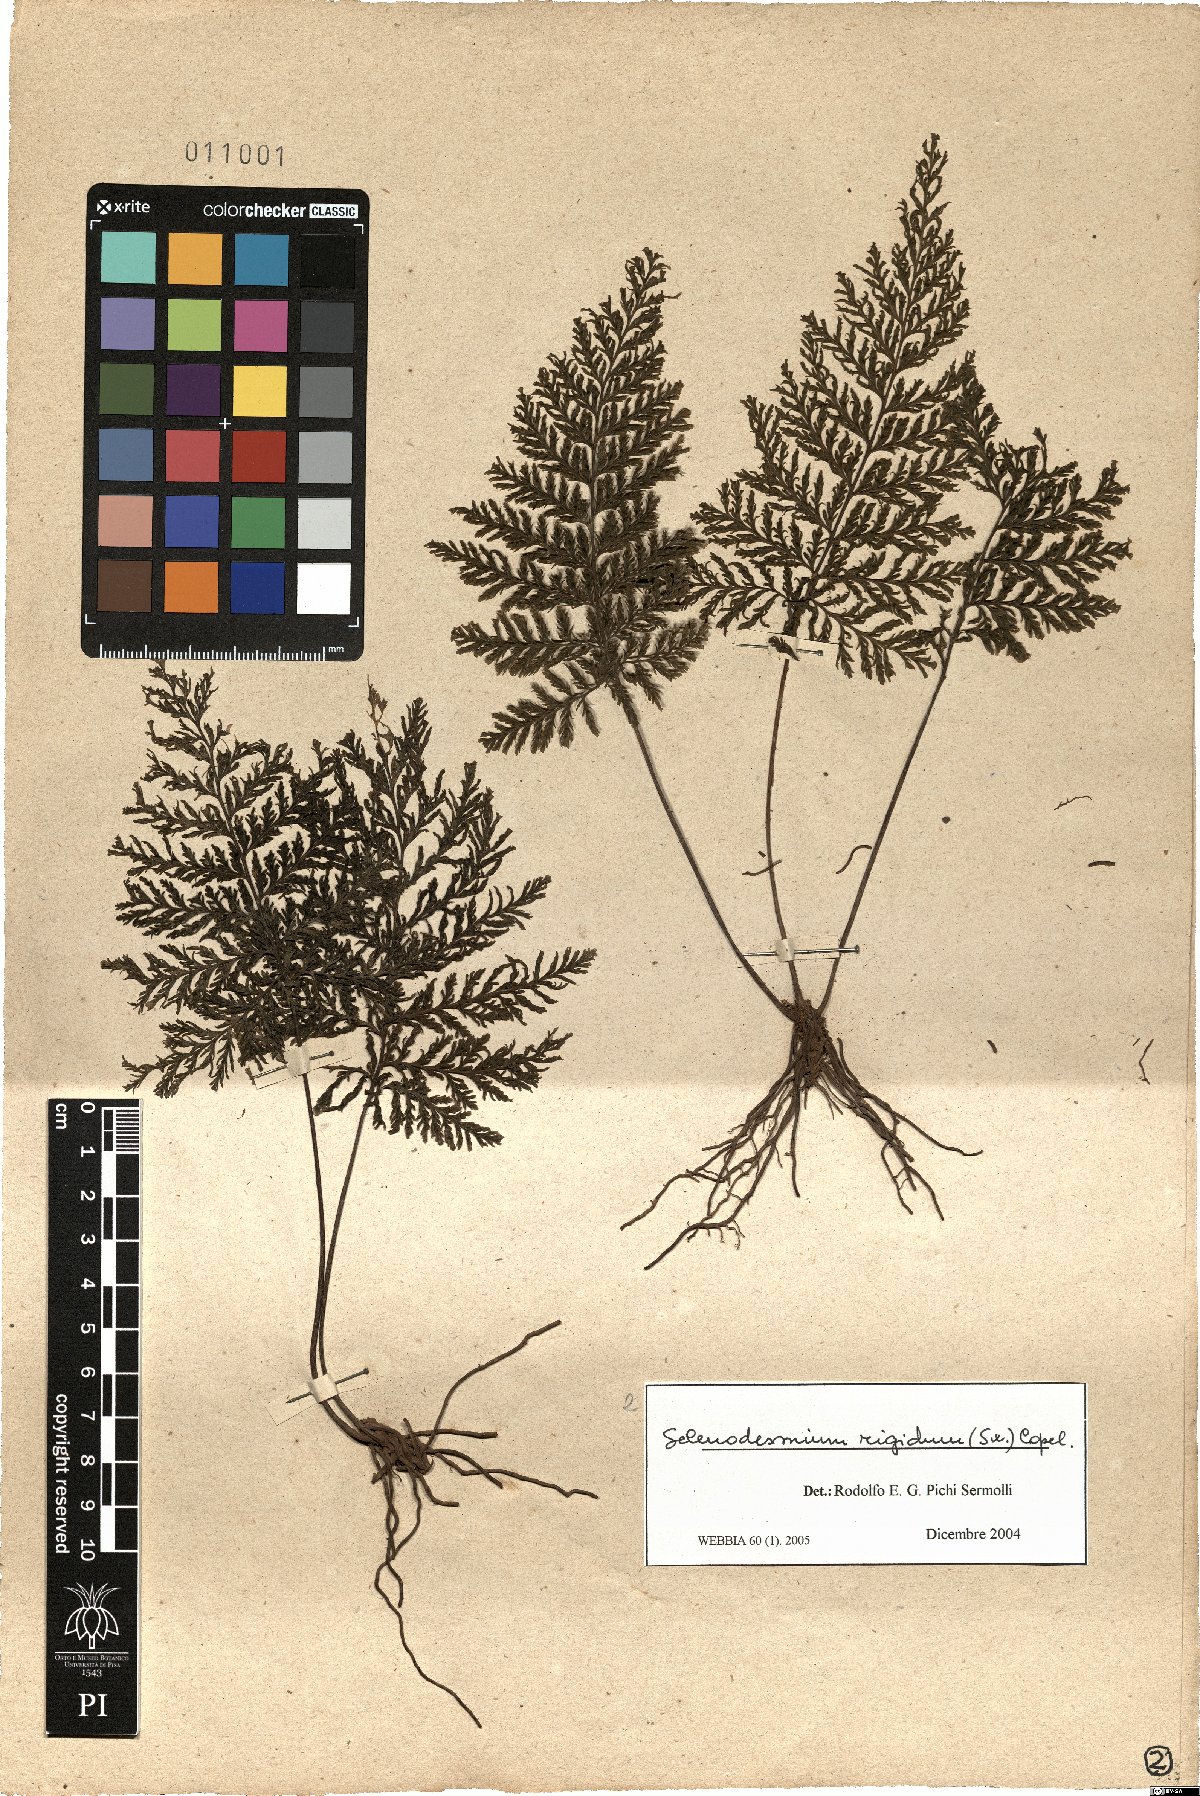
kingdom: Plantae
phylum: Tracheophyta
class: Polypodiopsida
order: Hymenophyllales
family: Hymenophyllaceae
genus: Abrodictyum
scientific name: Abrodictyum rigidum
